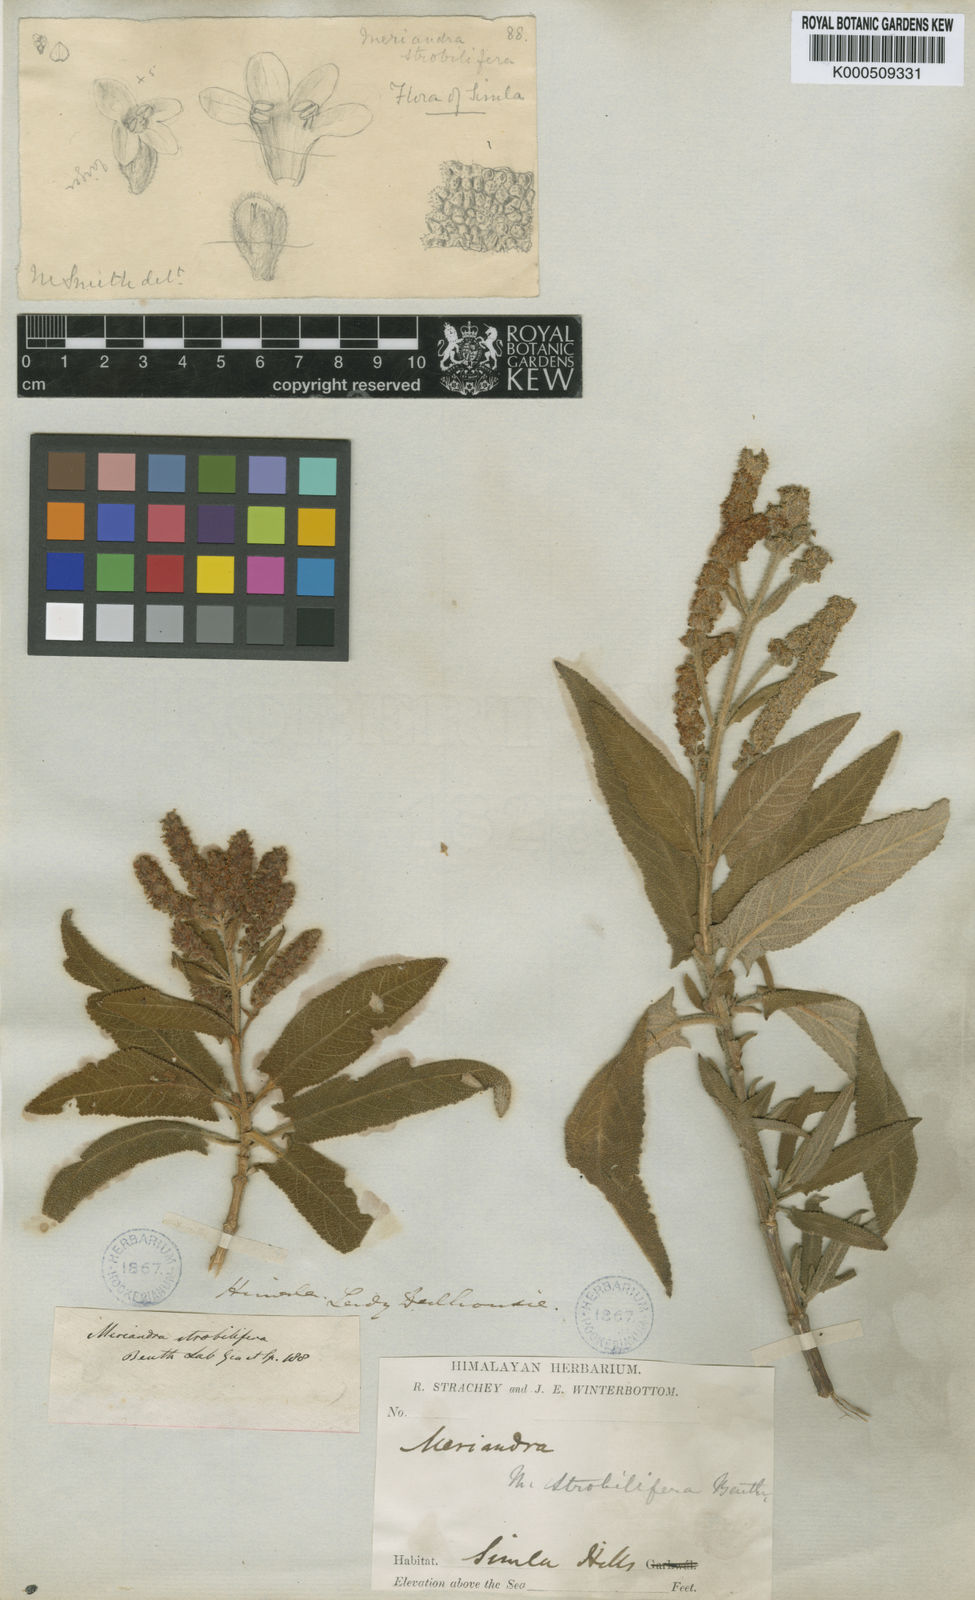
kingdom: Plantae
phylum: Tracheophyta
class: Magnoliopsida
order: Lamiales
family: Lamiaceae
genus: Salvia
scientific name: Salvia strobilifera
